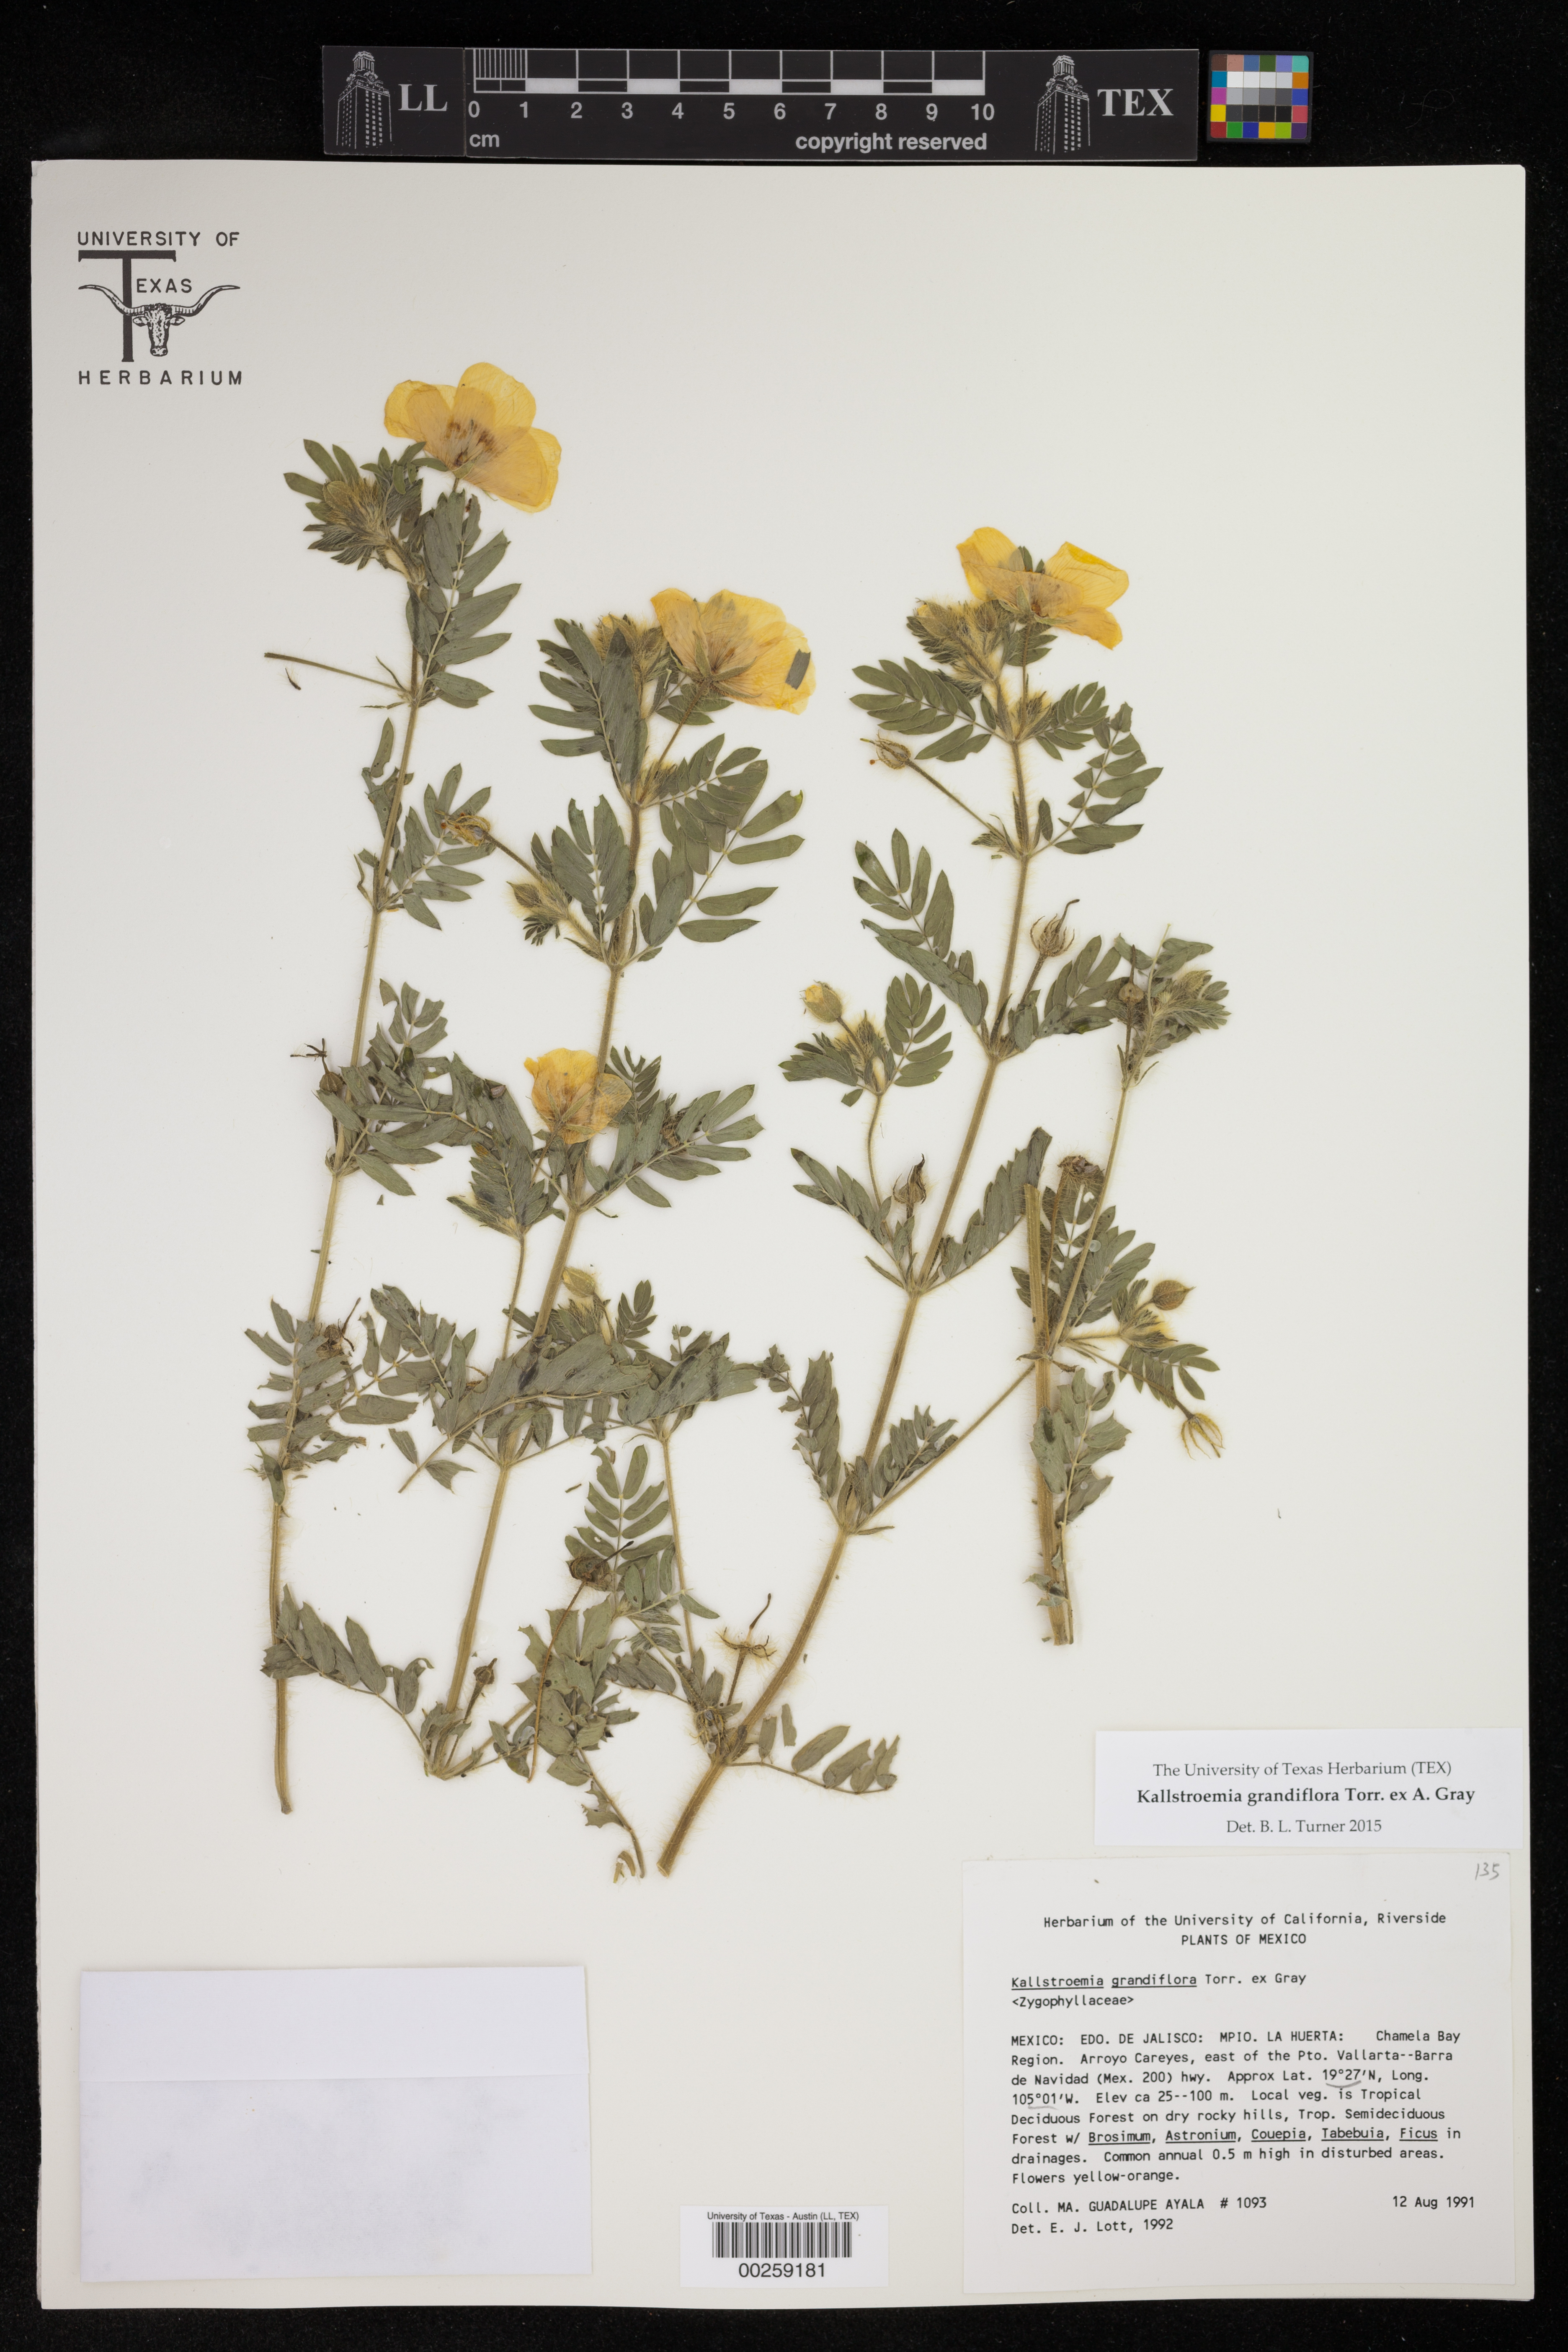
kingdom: Plantae
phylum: Tracheophyta
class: Magnoliopsida
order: Zygophyllales
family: Zygophyllaceae
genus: Kallstroemia
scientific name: Kallstroemia grandiflora
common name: Arizona-poppy
